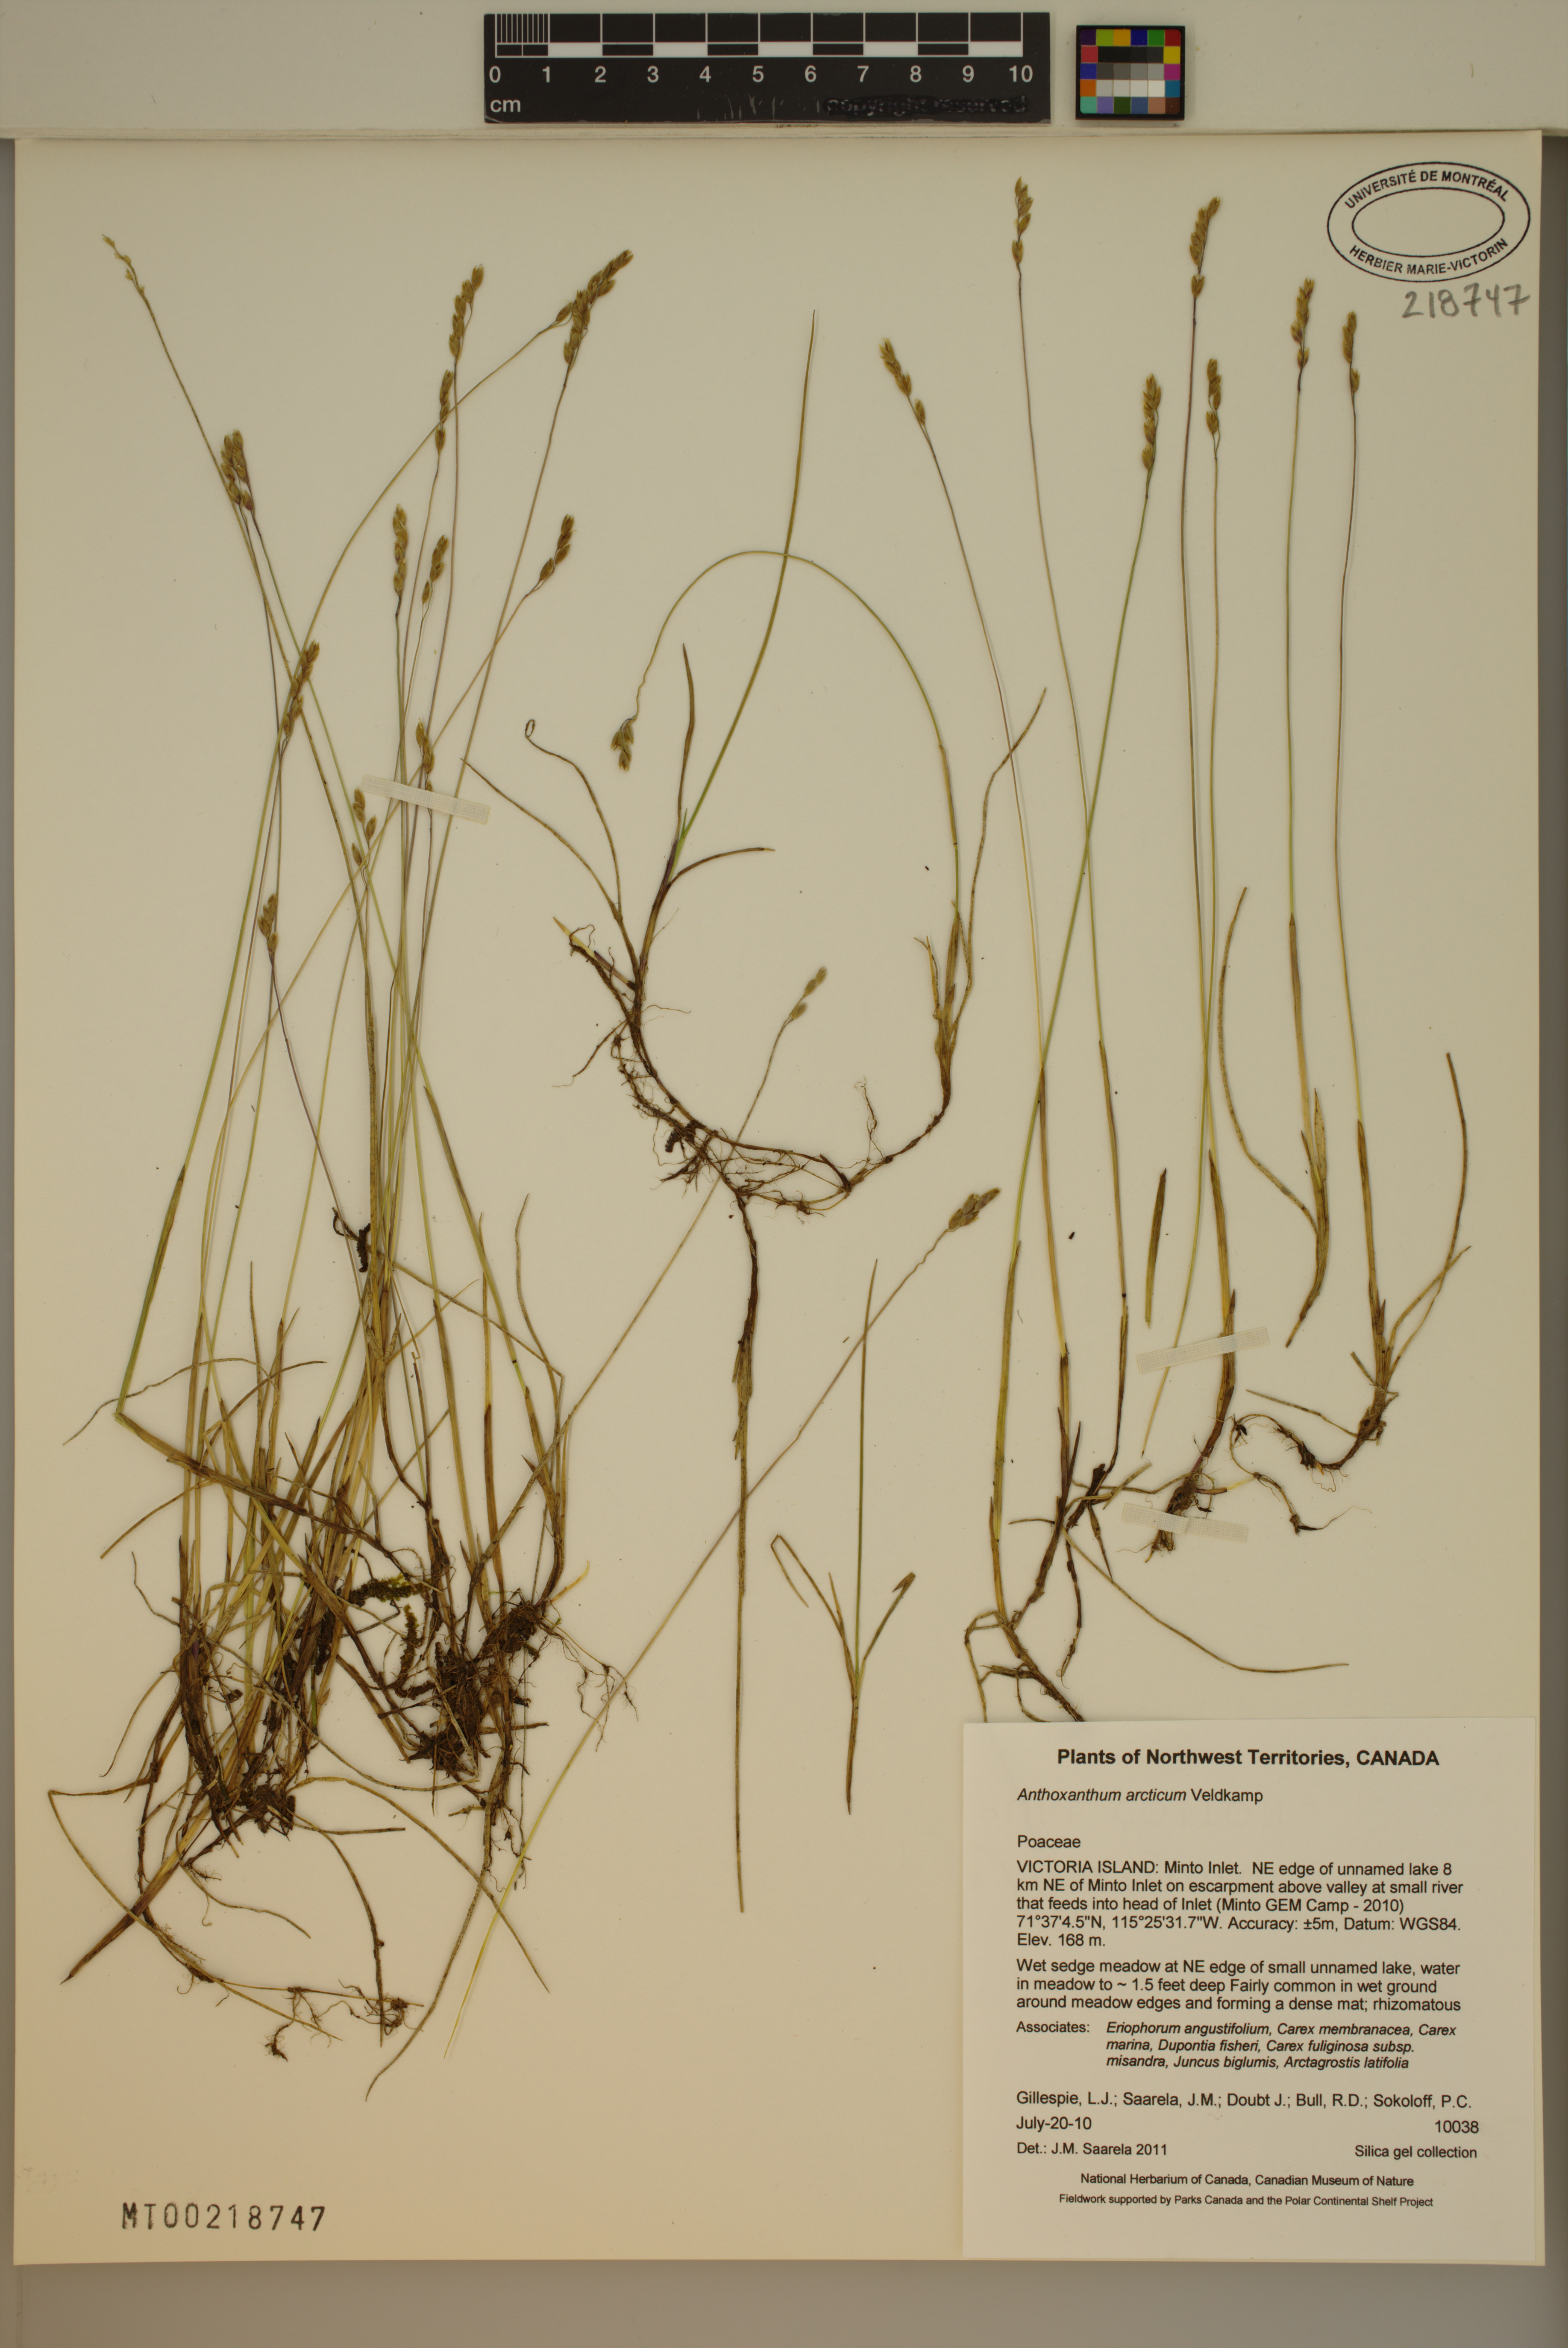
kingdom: Plantae
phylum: Tracheophyta
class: Liliopsida
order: Poales
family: Poaceae
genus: Anthoxanthum
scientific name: Anthoxanthum arcticum
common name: Arctic sweetgrass
